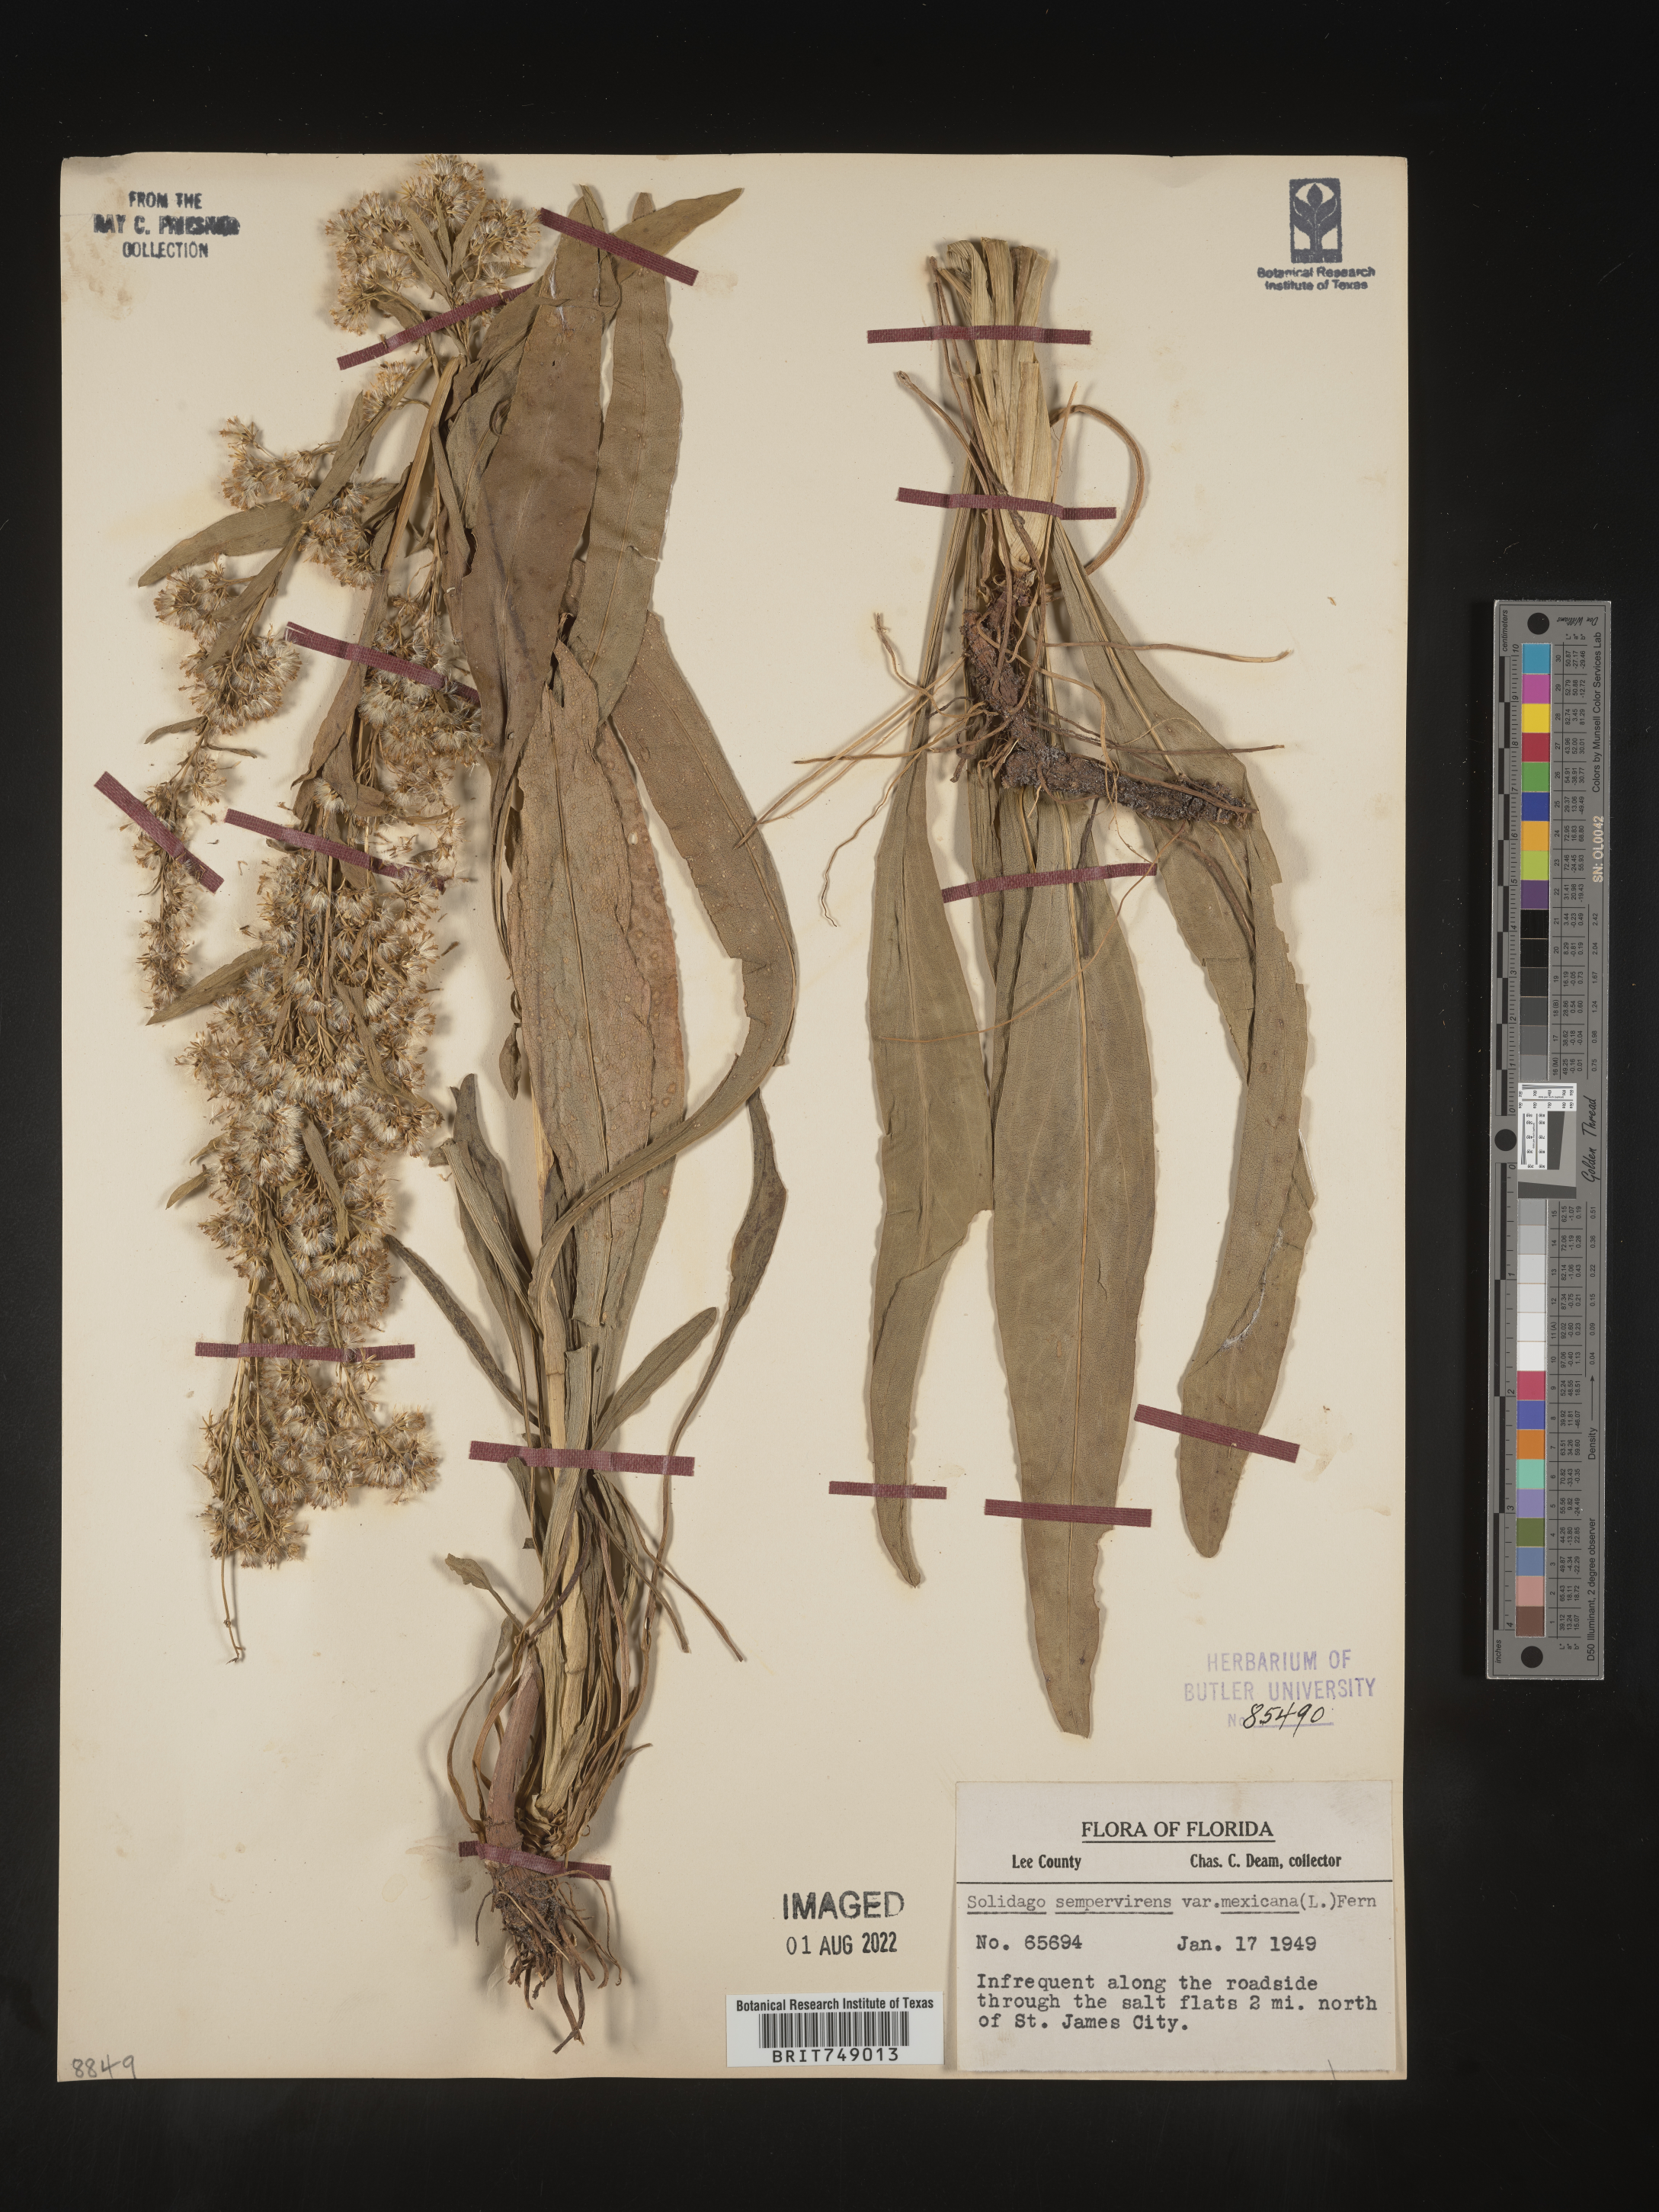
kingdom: Plantae
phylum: Tracheophyta
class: Magnoliopsida
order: Asterales
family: Asteraceae
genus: Solidago
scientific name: Solidago sempervirens
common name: Salt-marsh goldenrod
